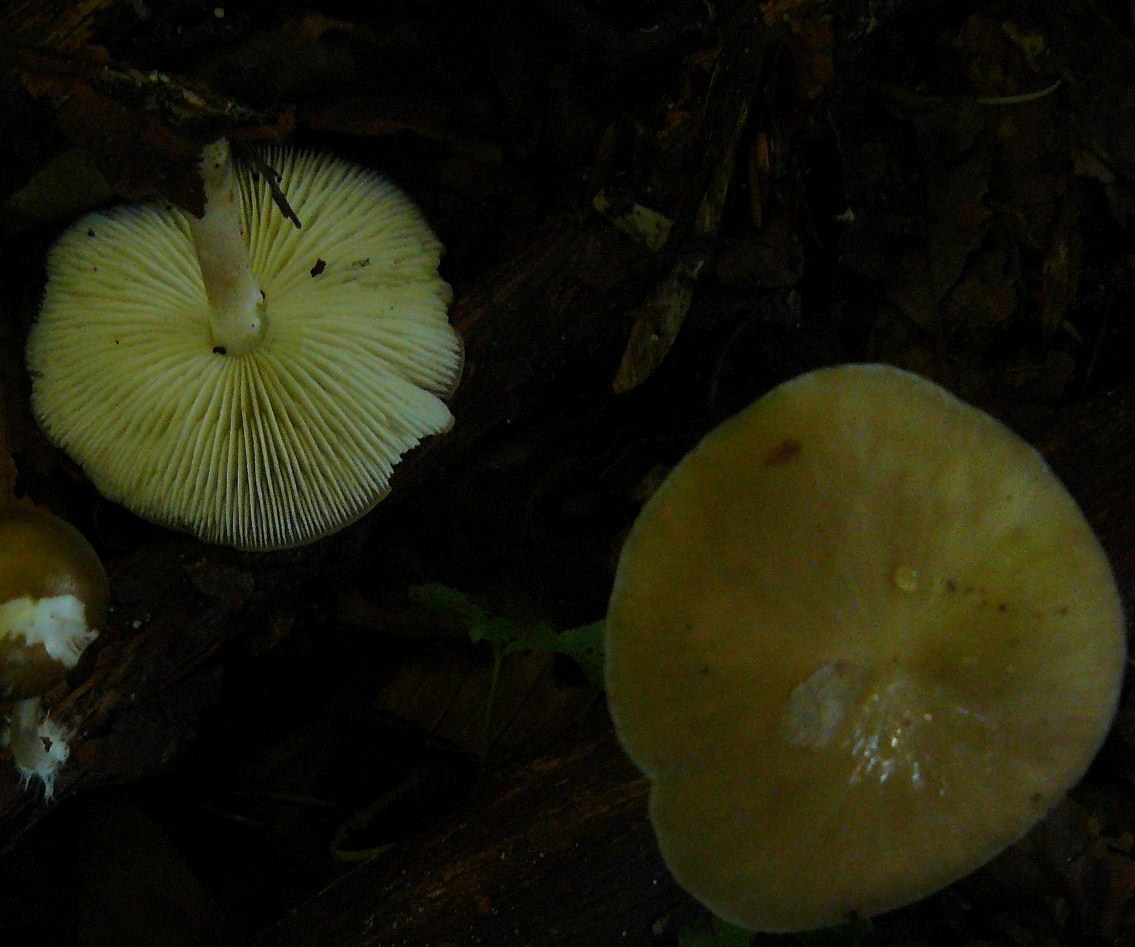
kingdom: Fungi
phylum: Basidiomycota
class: Agaricomycetes
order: Agaricales
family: Porotheleaceae
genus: Hydropodia
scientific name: Hydropodia subalpina
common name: vår-fnugfod
